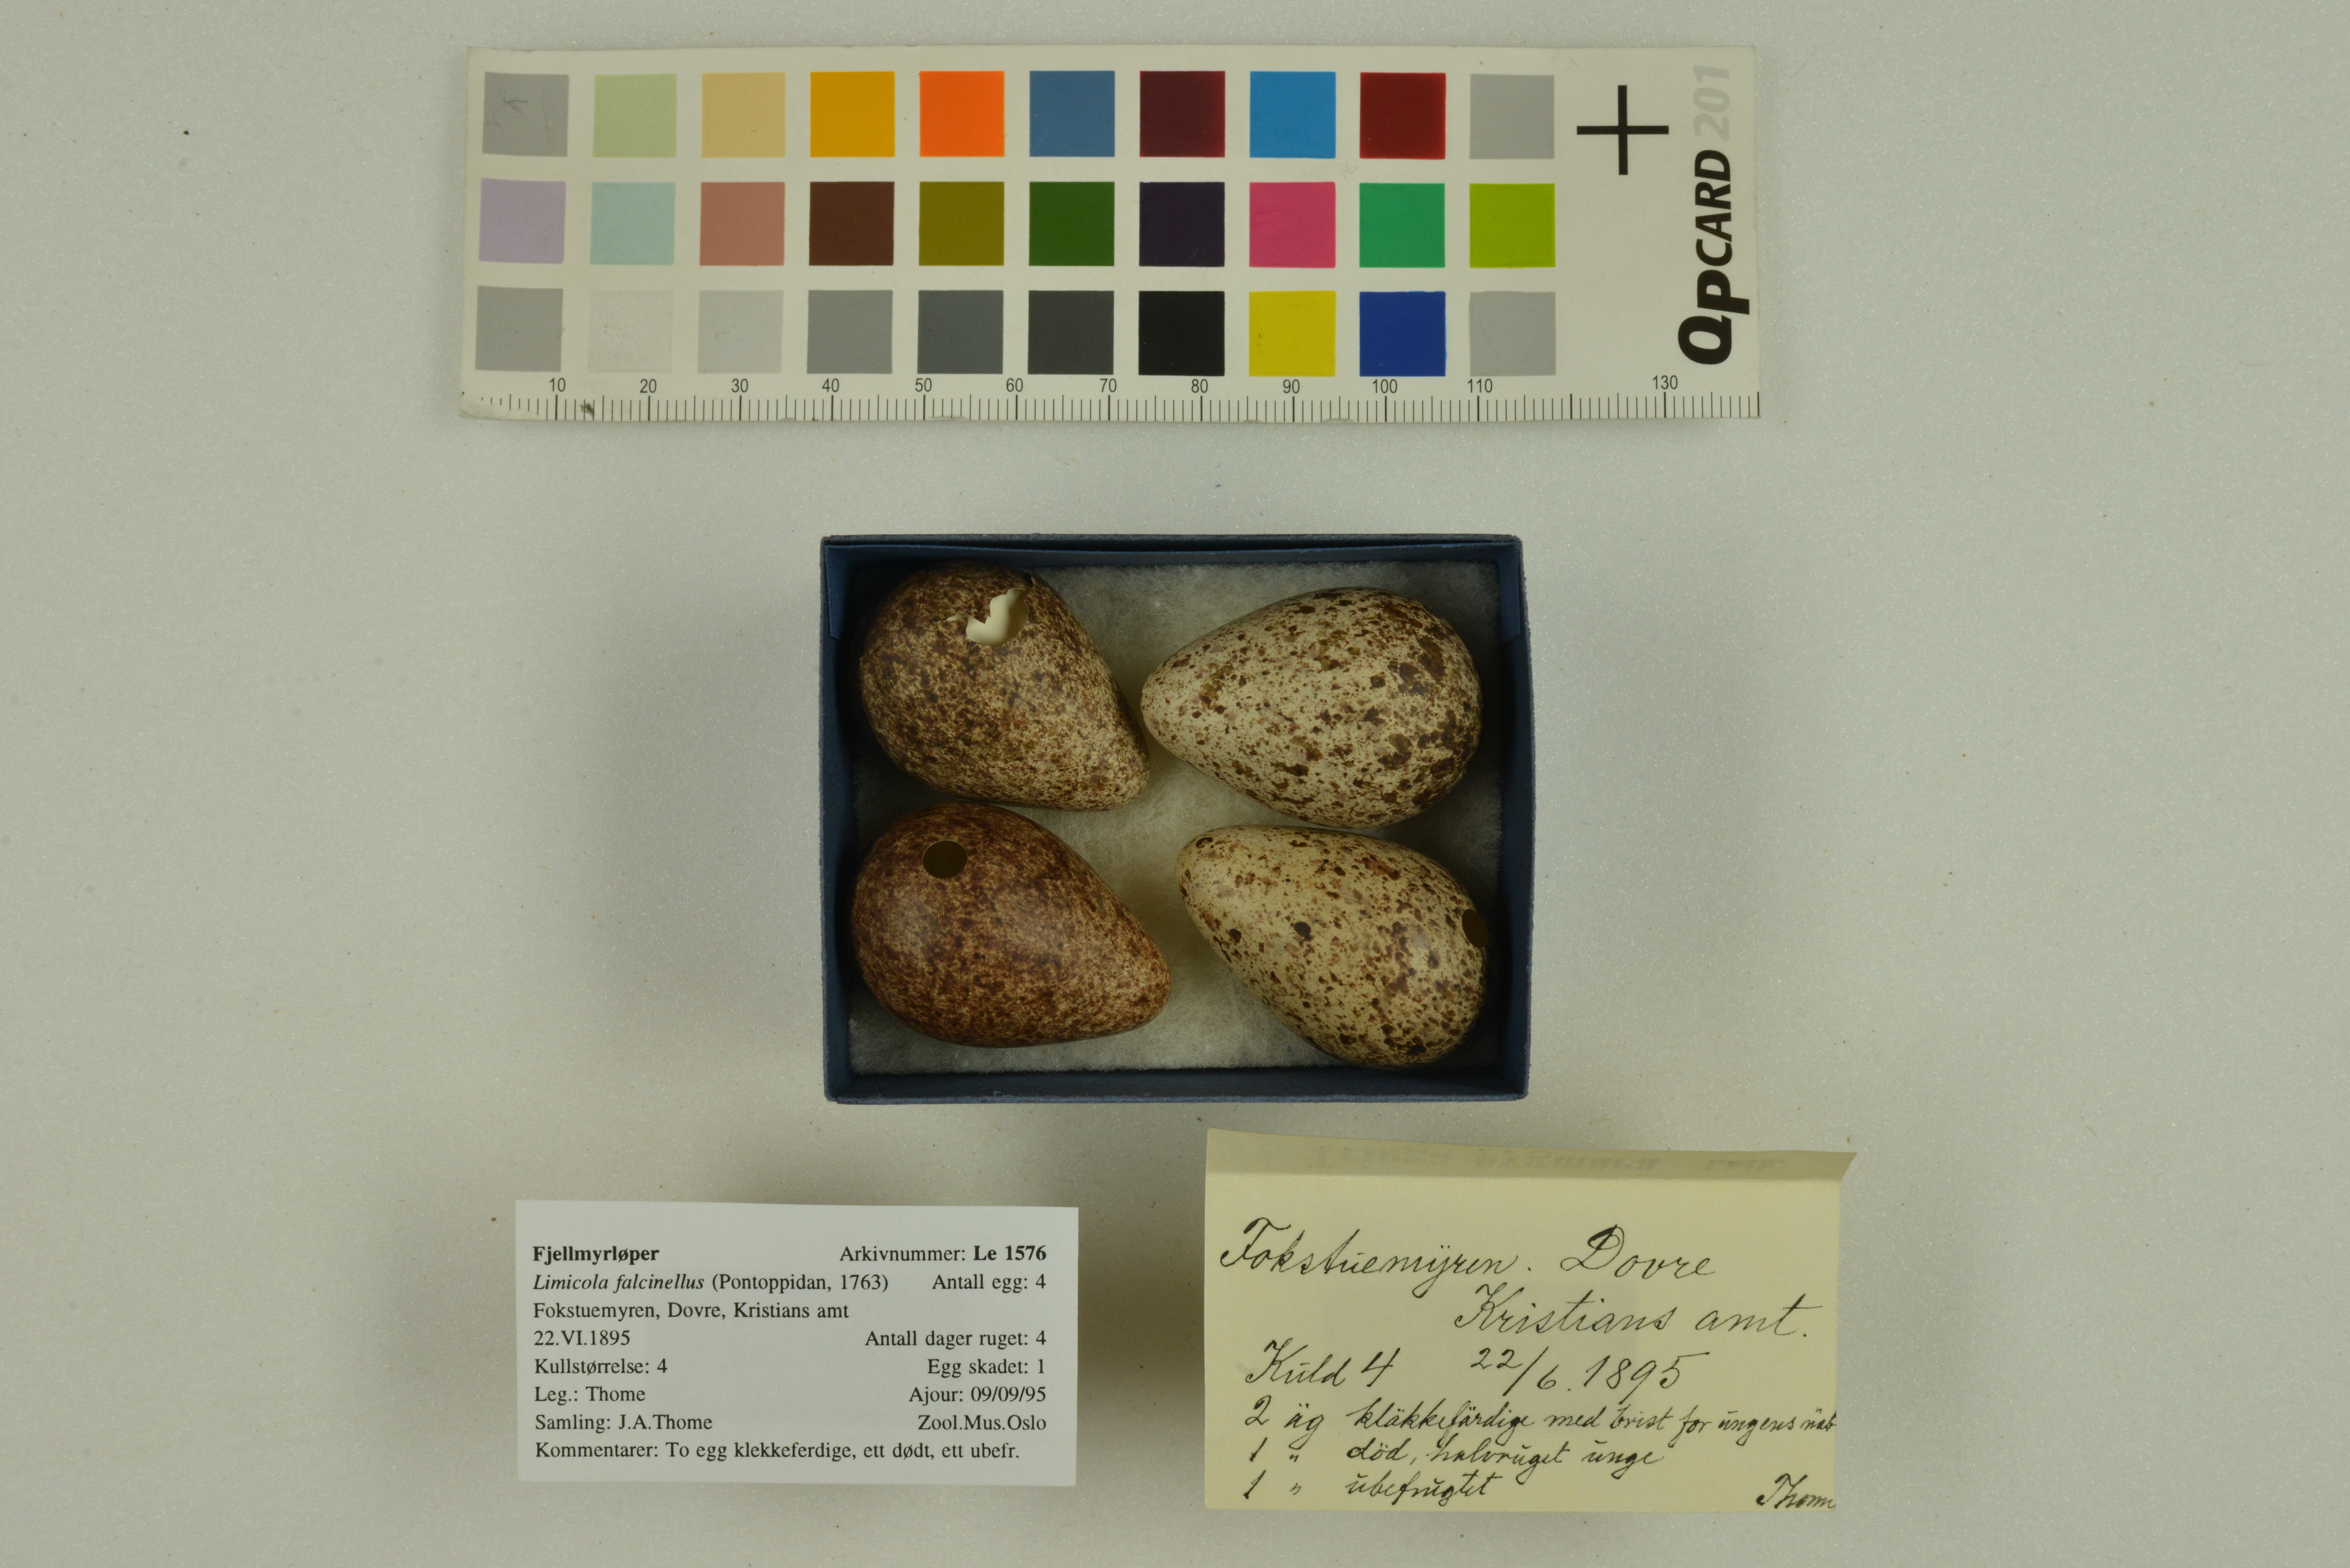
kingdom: Animalia
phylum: Chordata
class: Aves
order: Charadriiformes
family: Scolopacidae
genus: Calidris
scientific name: Calidris falcinellus
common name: Broad-billed sandpiper
